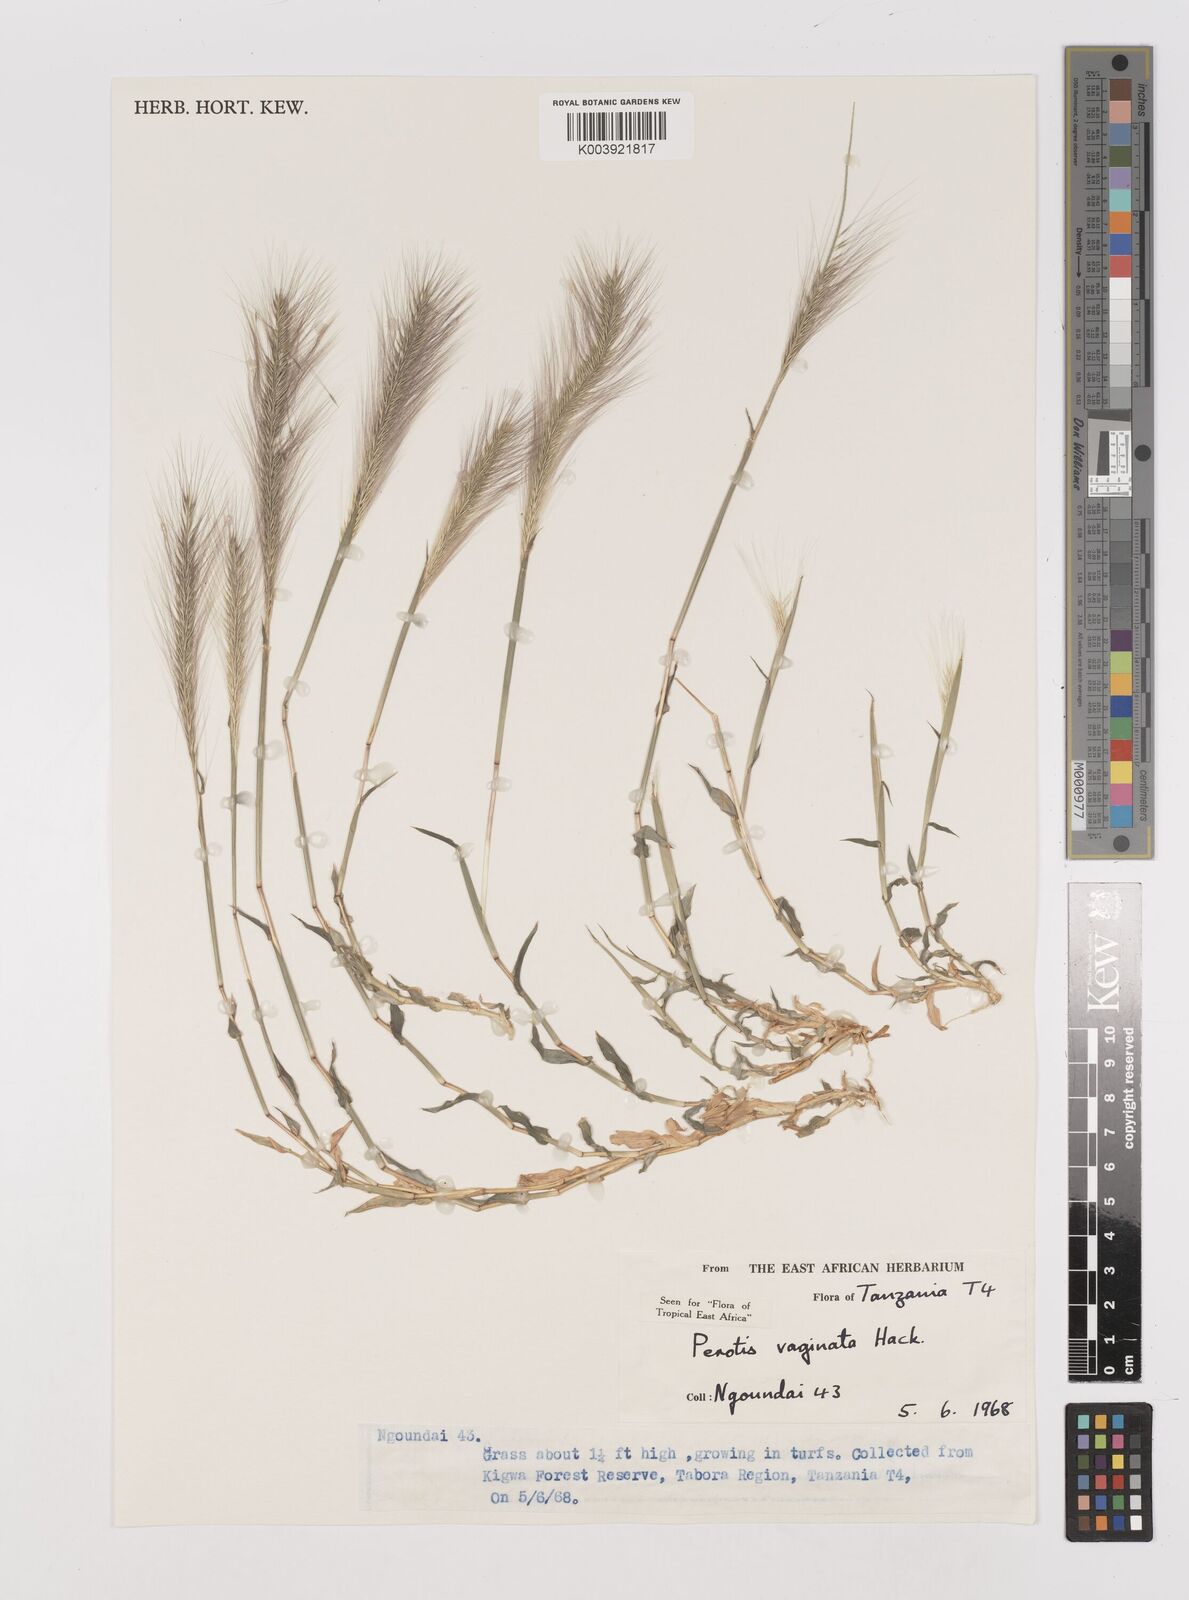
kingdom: Plantae
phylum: Tracheophyta
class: Liliopsida
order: Poales
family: Poaceae
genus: Perotis
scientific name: Perotis vaginata
